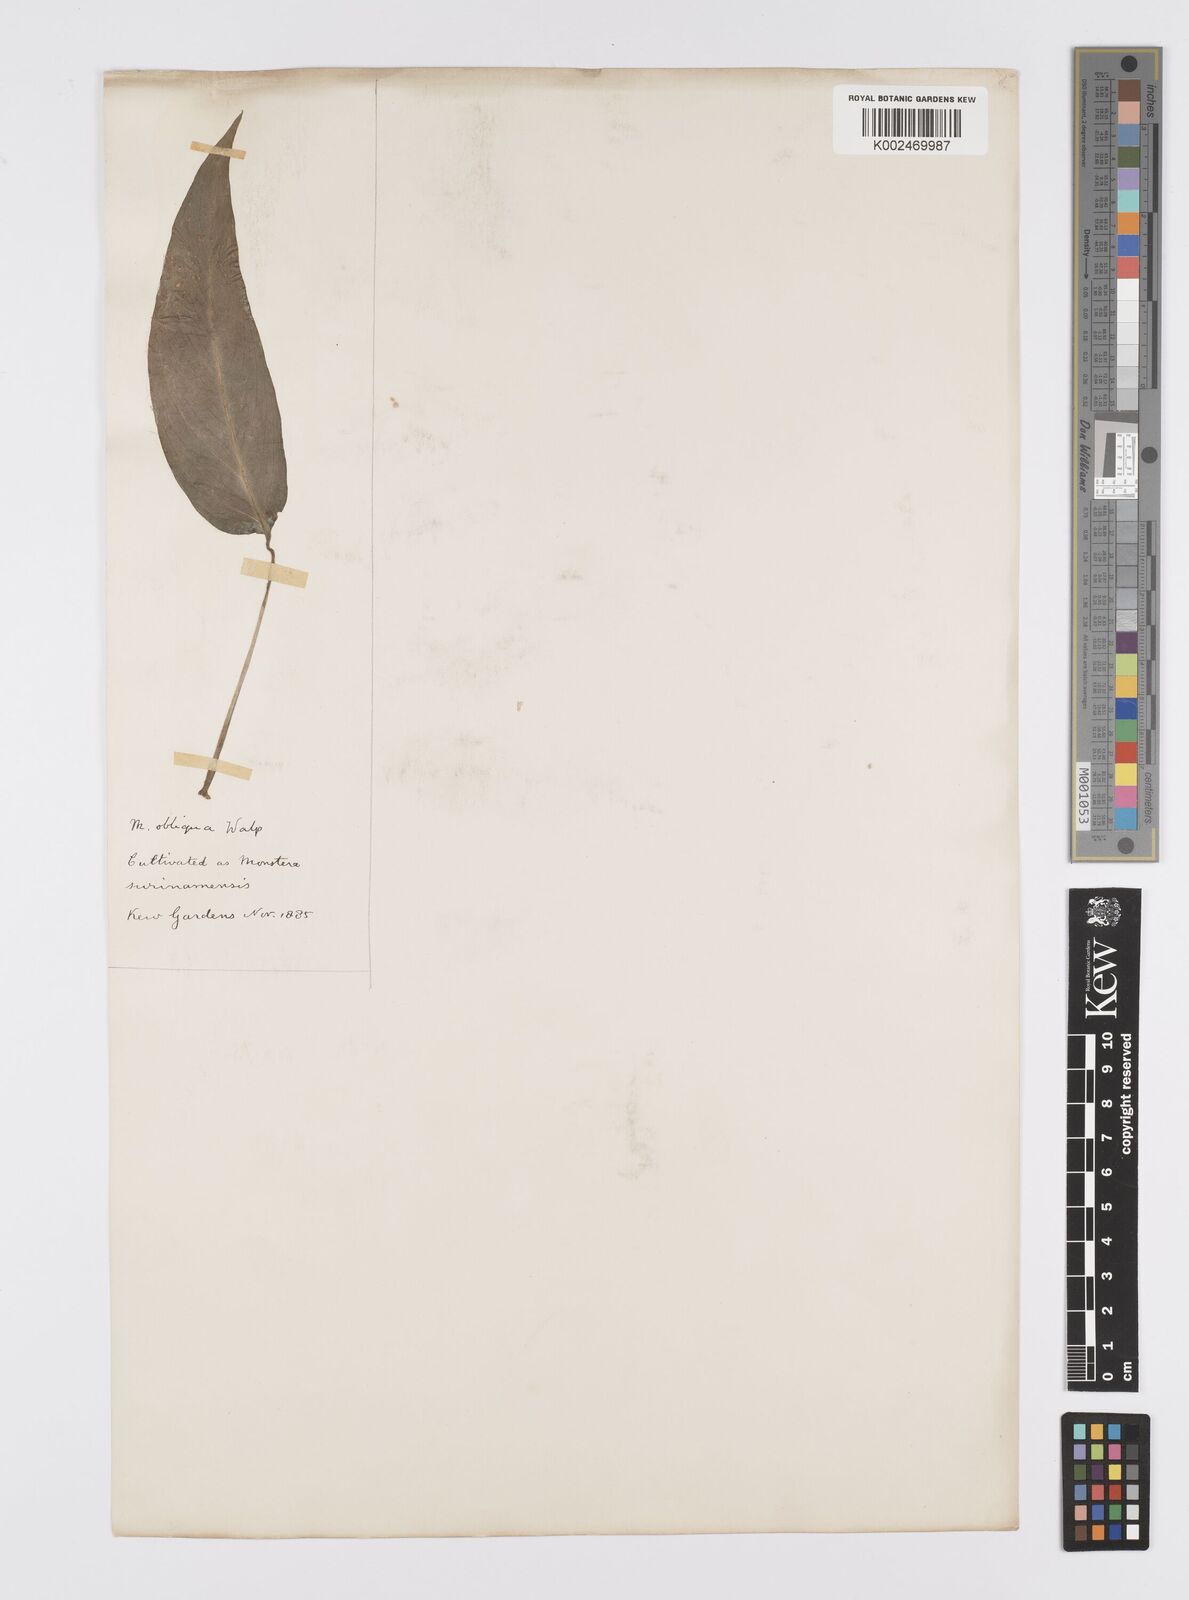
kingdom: Plantae
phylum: Tracheophyta
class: Liliopsida
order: Alismatales
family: Araceae
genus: Monstera
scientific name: Monstera obliqua
